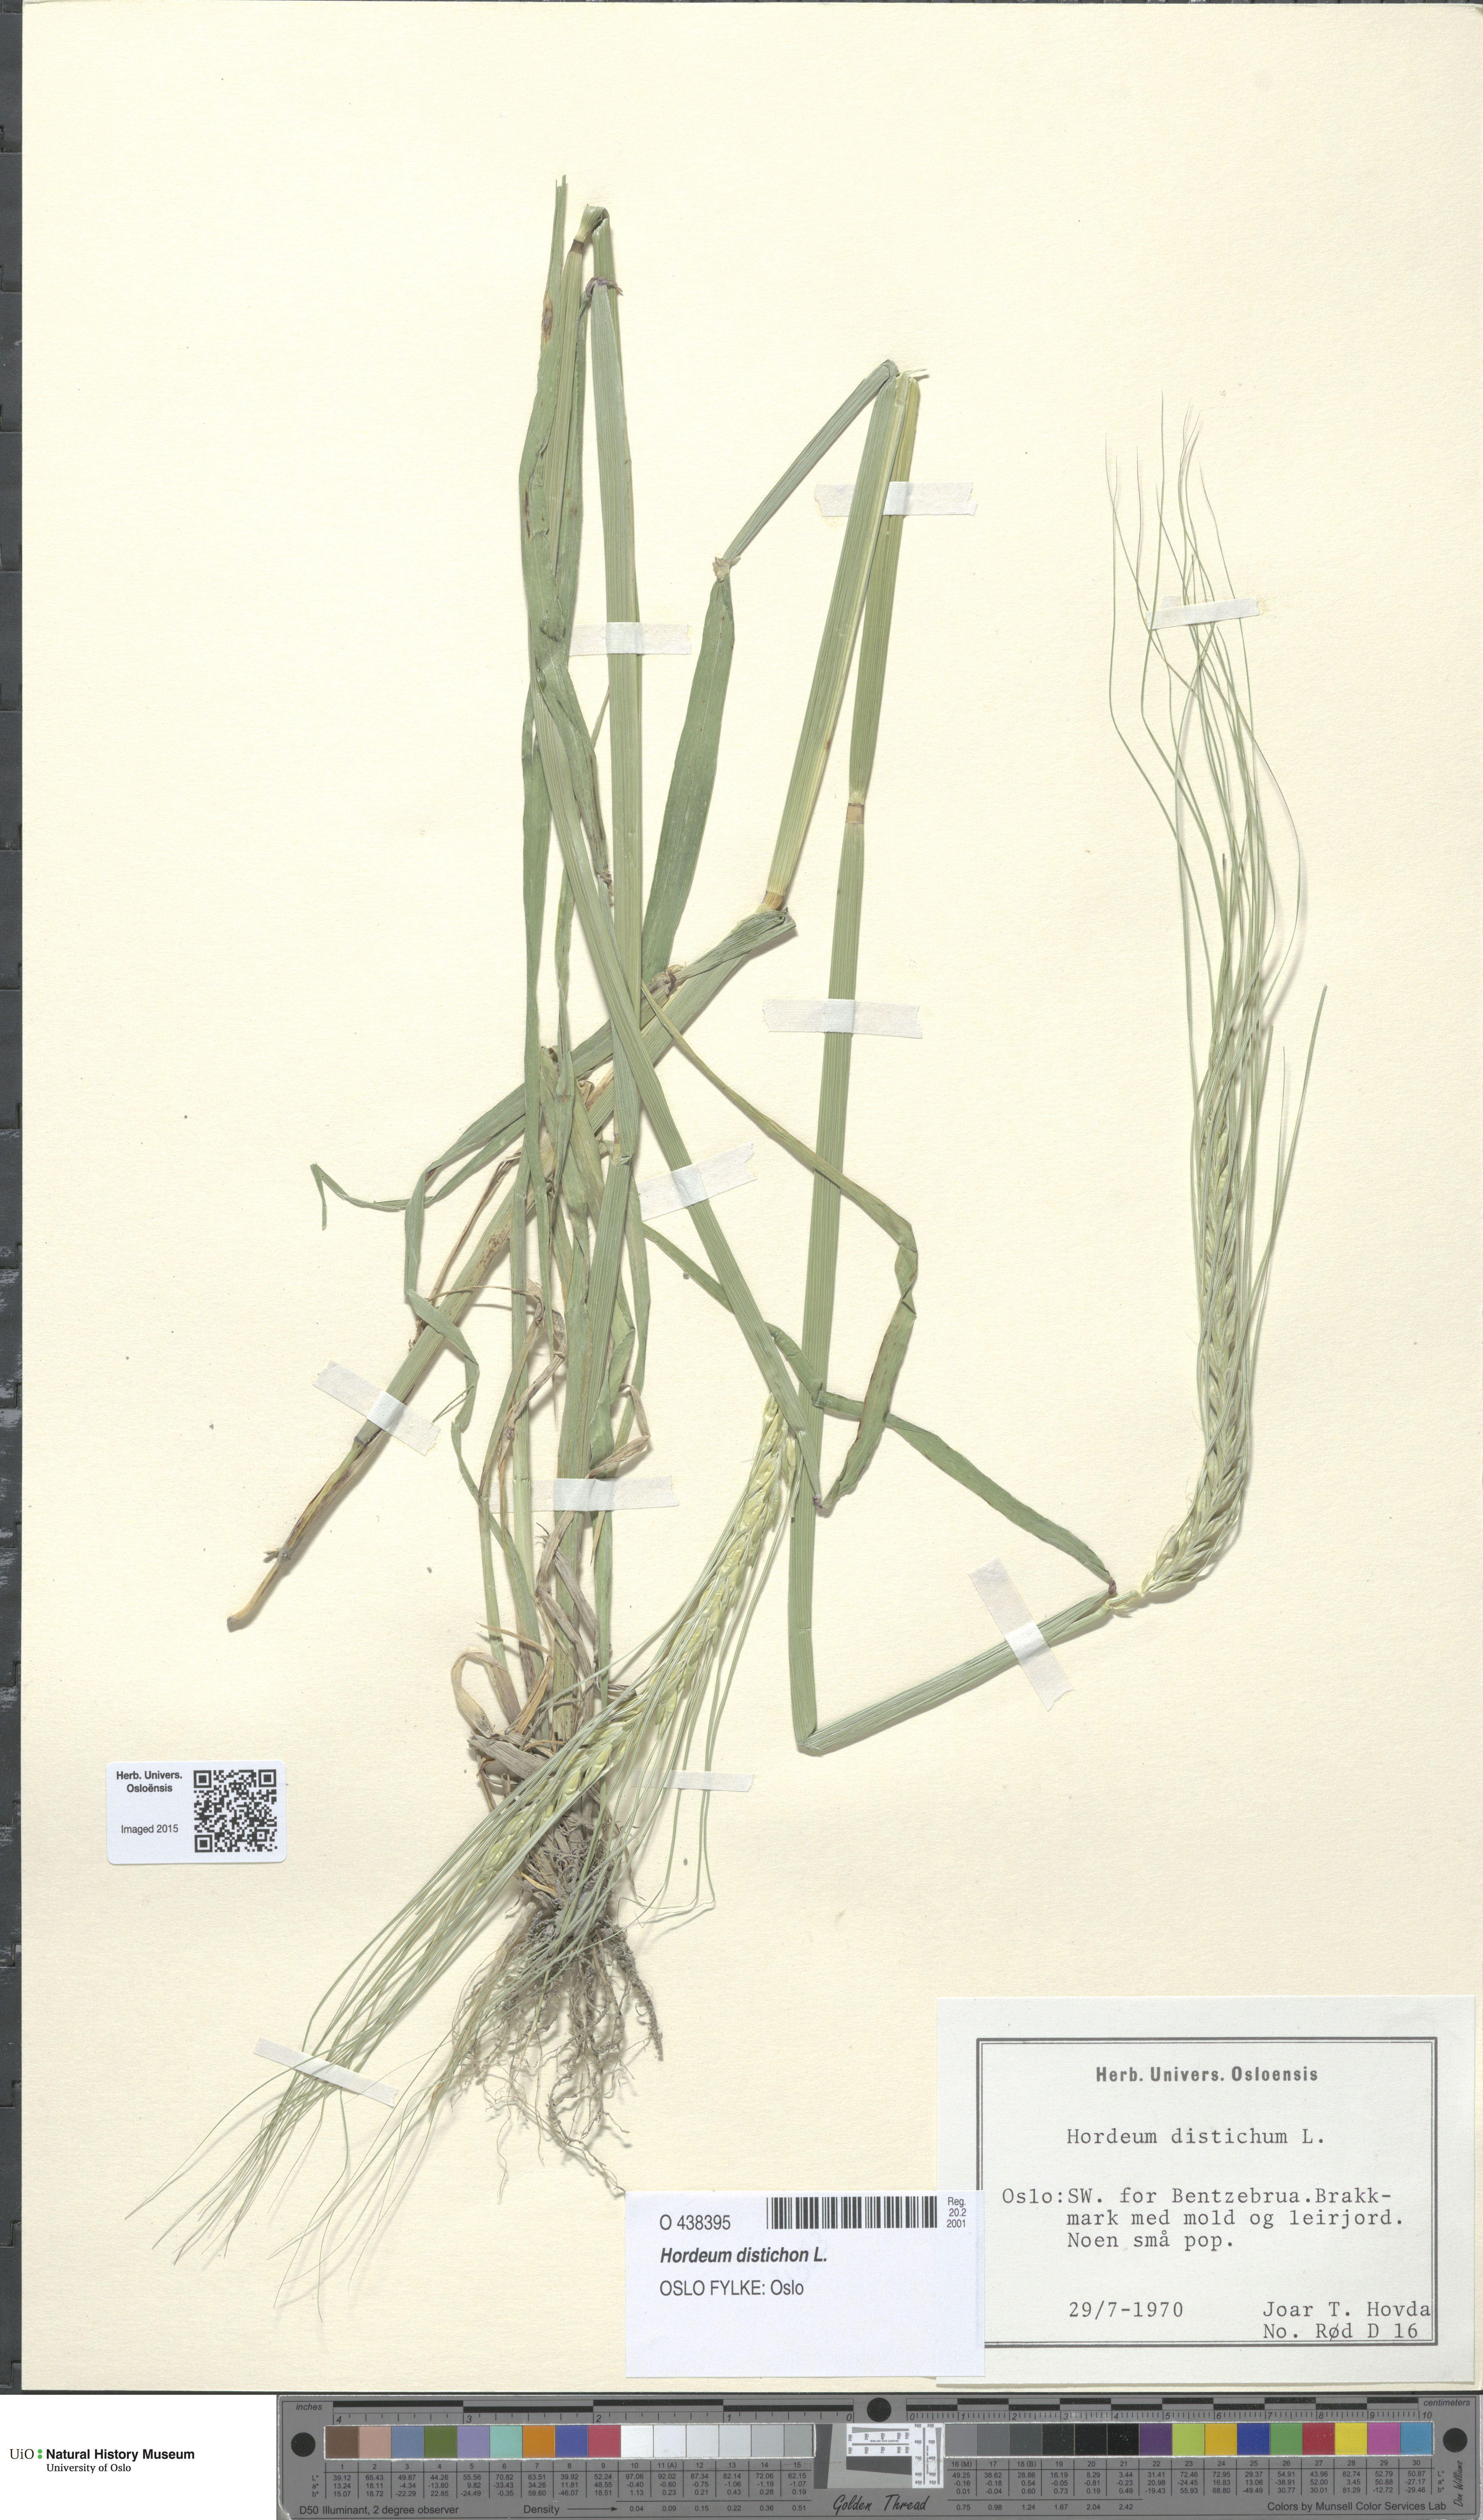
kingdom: Plantae
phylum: Tracheophyta
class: Liliopsida
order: Poales
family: Poaceae
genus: Hordeum
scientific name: Hordeum distichon
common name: Two-rowed barley
